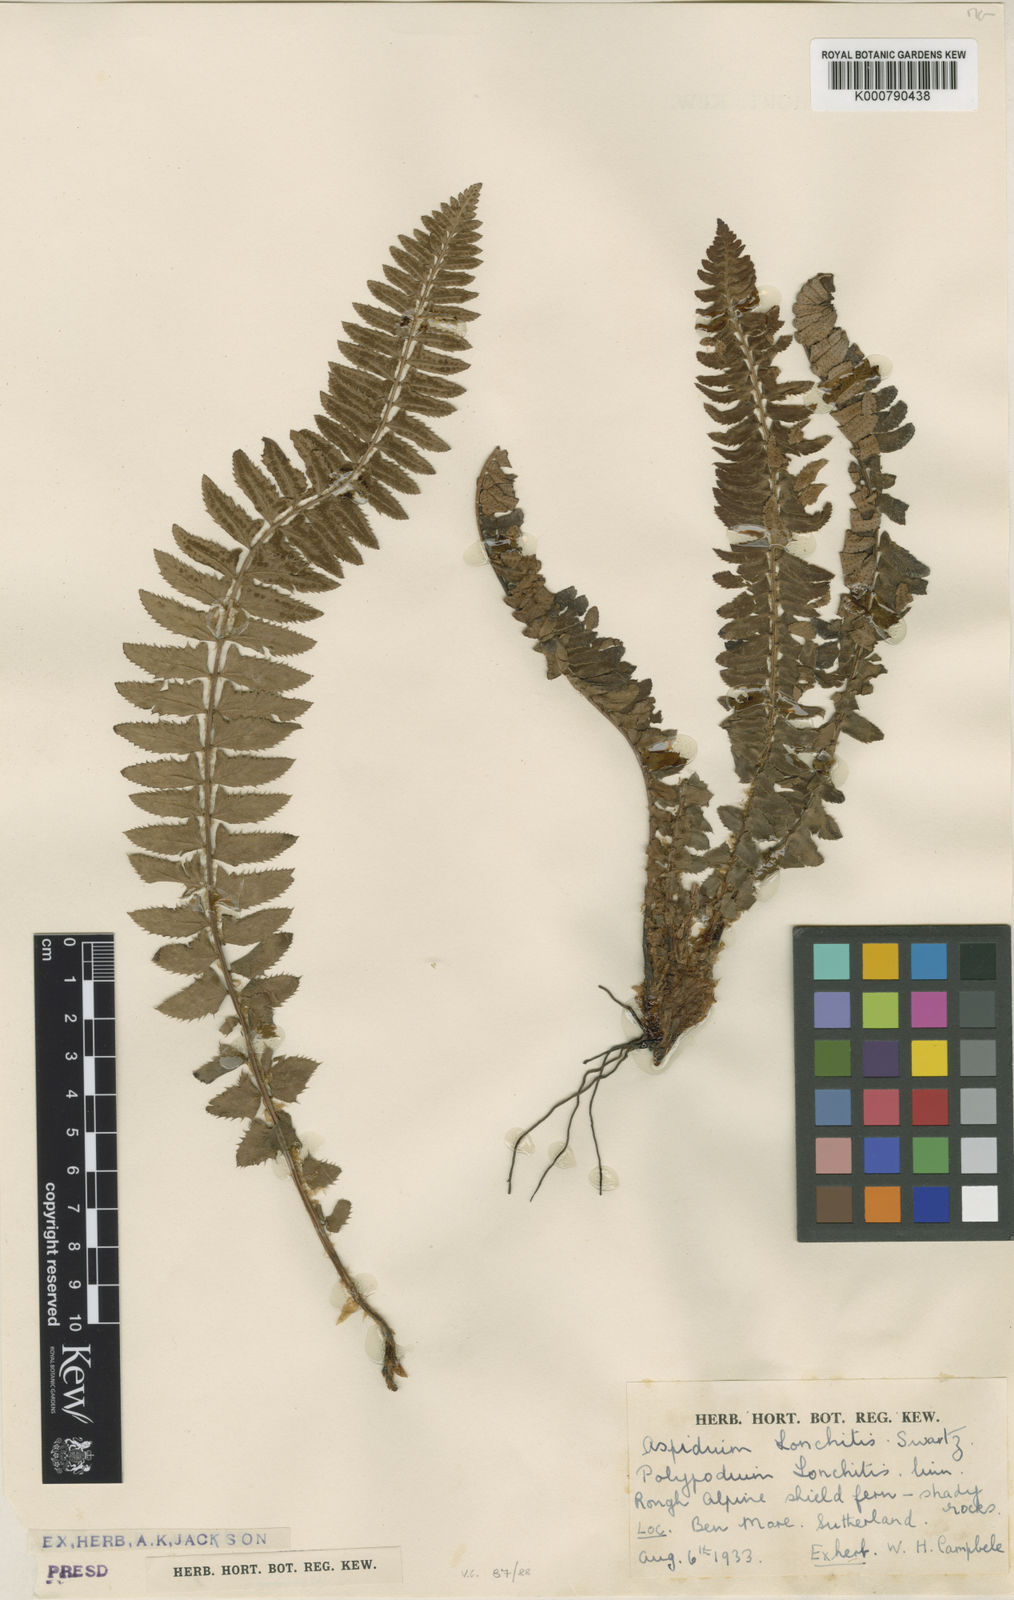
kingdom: Plantae
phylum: Tracheophyta
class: Polypodiopsida
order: Polypodiales
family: Dryopteridaceae
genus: Polystichum
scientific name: Polystichum
